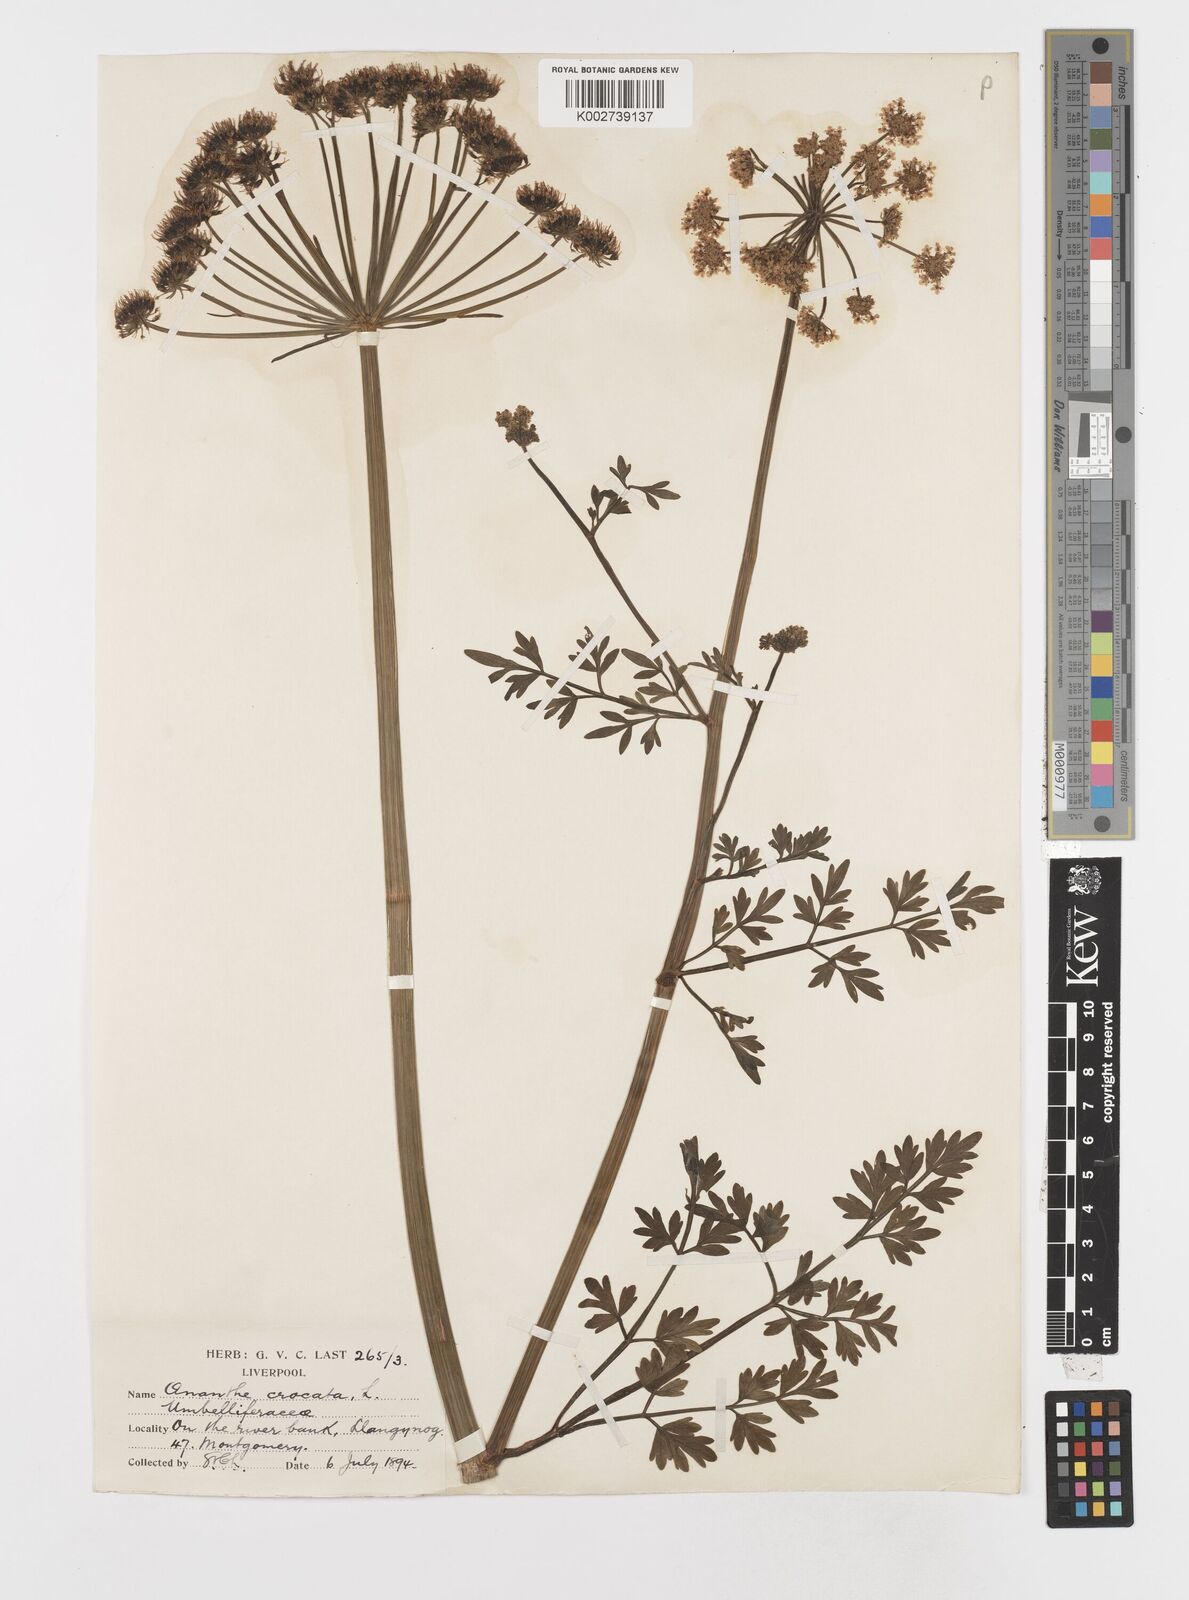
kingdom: Plantae
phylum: Tracheophyta
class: Magnoliopsida
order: Apiales
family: Apiaceae
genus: Oenanthe
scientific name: Oenanthe crocata
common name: Hemlock water-dropwort
